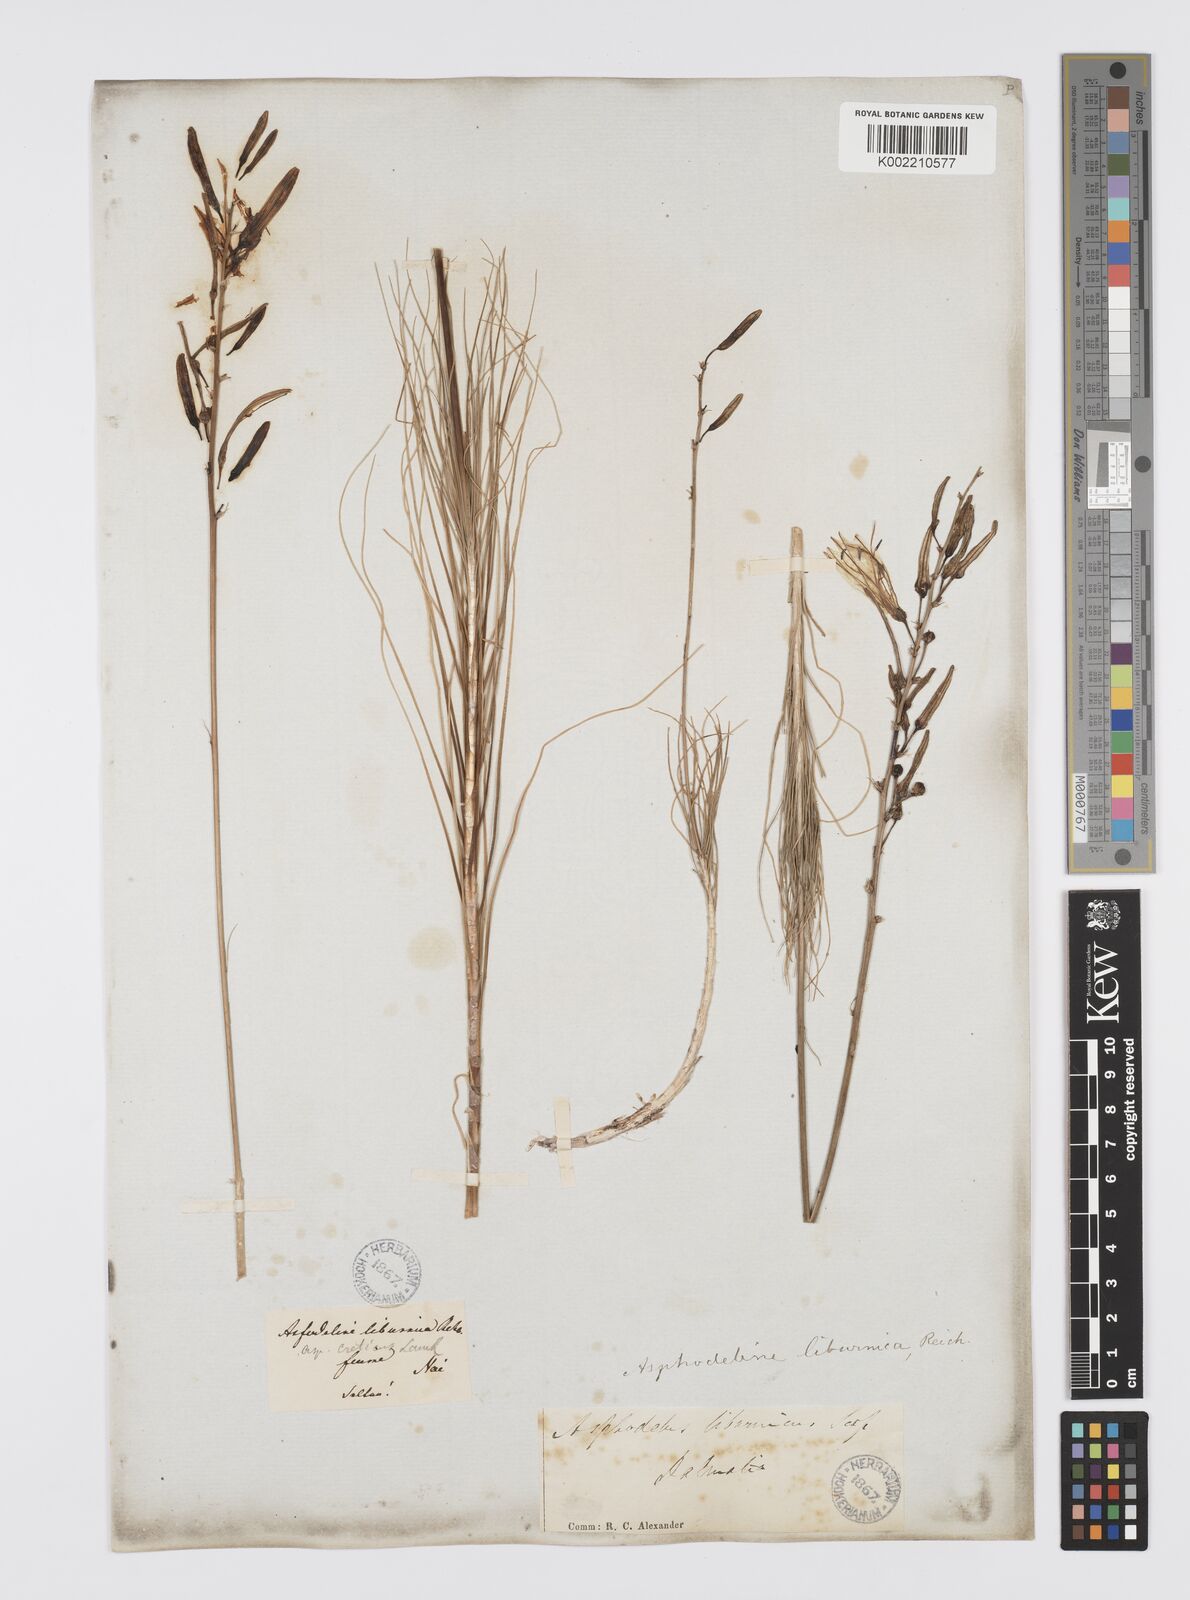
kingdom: Plantae
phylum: Tracheophyta
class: Liliopsida
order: Asparagales
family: Asphodelaceae
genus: Asphodeline
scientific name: Asphodeline liburnica
